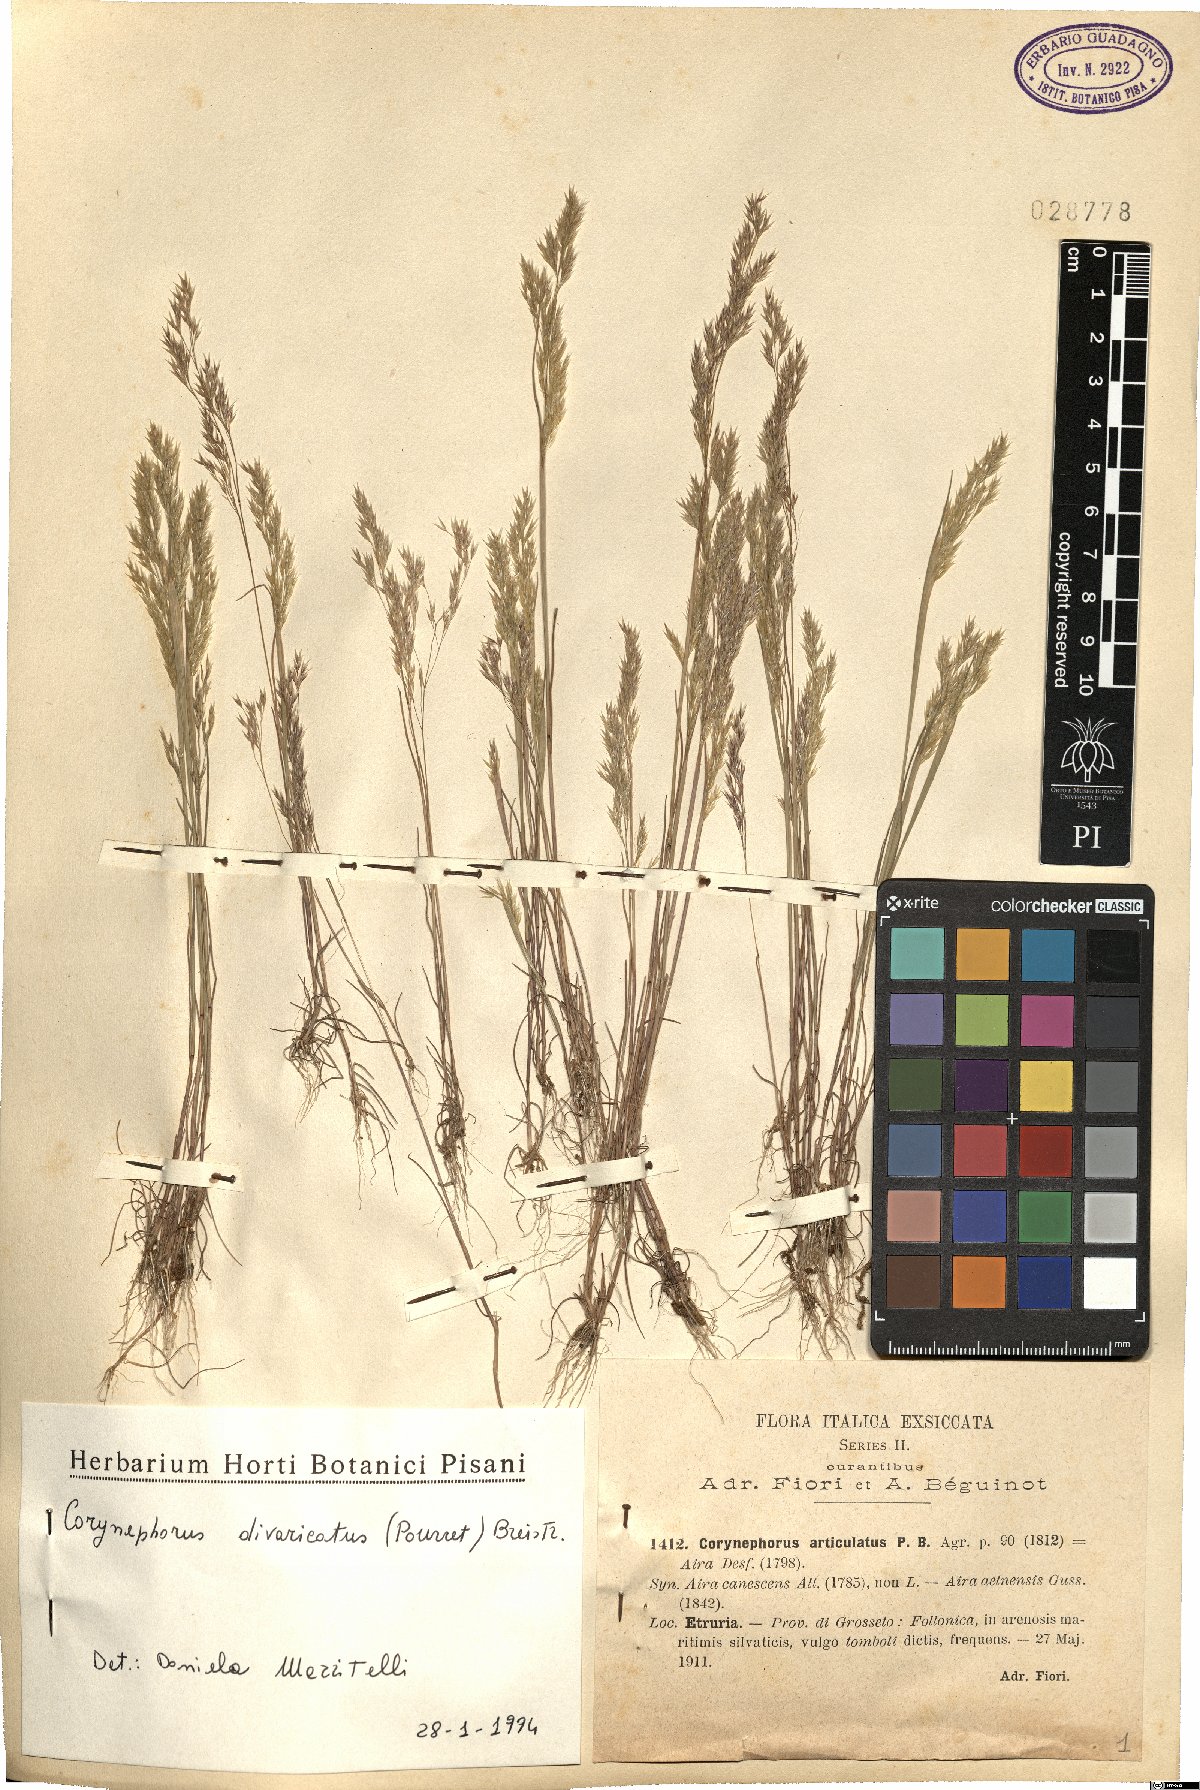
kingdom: Plantae
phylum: Tracheophyta
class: Liliopsida
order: Poales
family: Poaceae
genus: Corynephorus
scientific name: Corynephorus divaricatus
